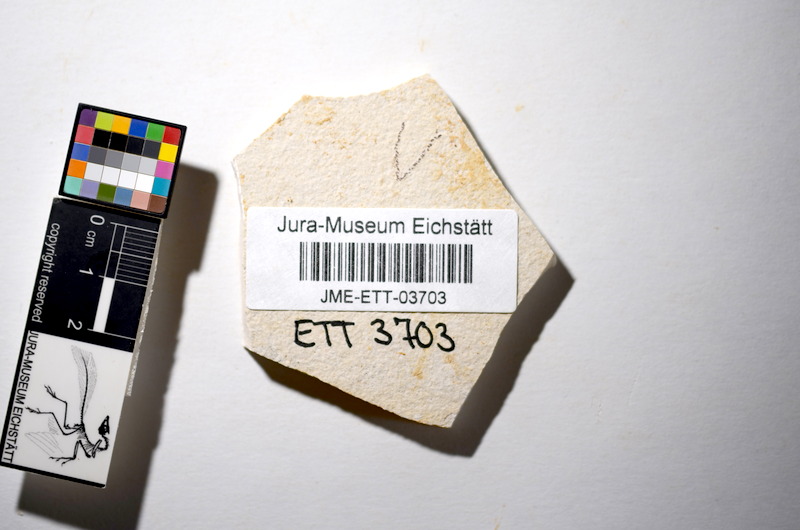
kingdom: Animalia
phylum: Chordata
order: Salmoniformes
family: Orthogonikleithridae
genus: Orthogonikleithrus
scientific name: Orthogonikleithrus hoelli
